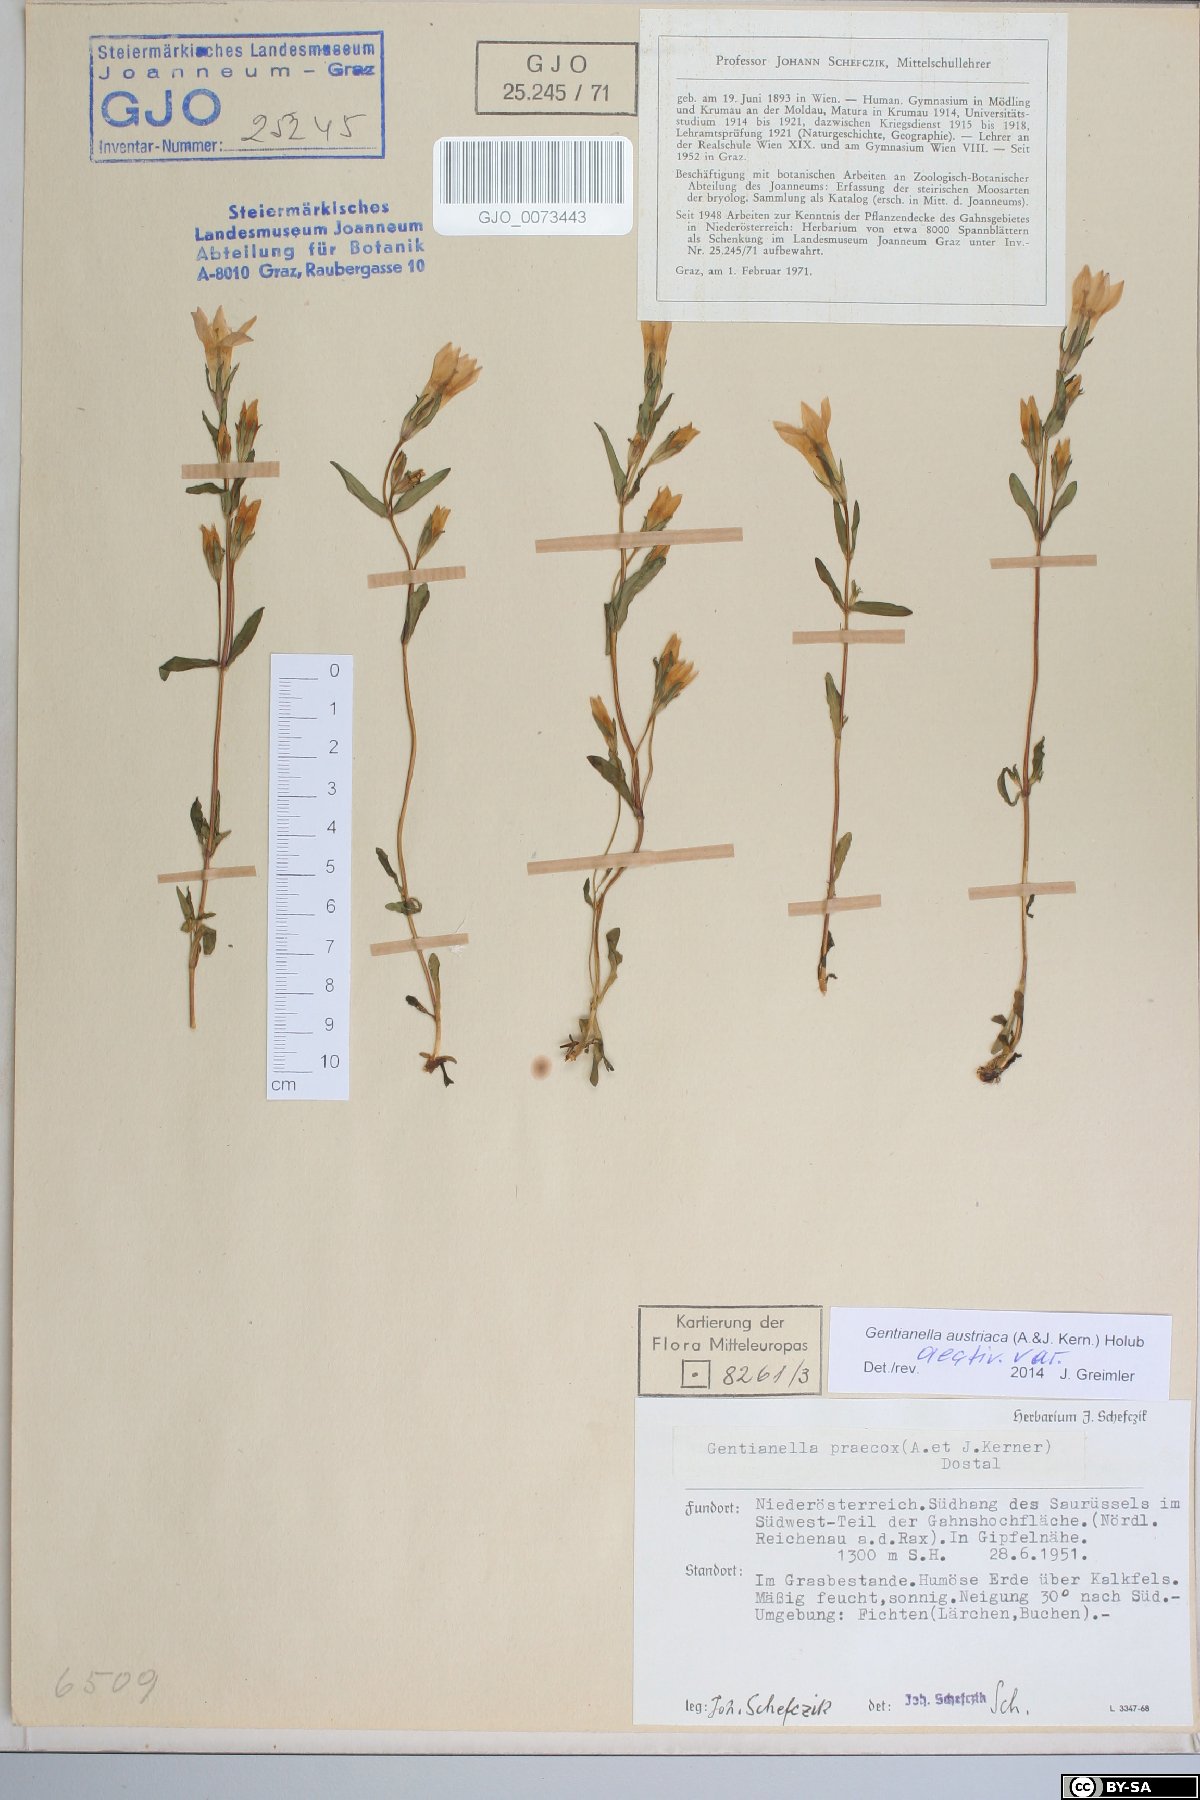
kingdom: Plantae
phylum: Tracheophyta
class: Magnoliopsida
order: Gentianales
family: Gentianaceae
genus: Gentianella
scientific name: Gentianella austriaca
